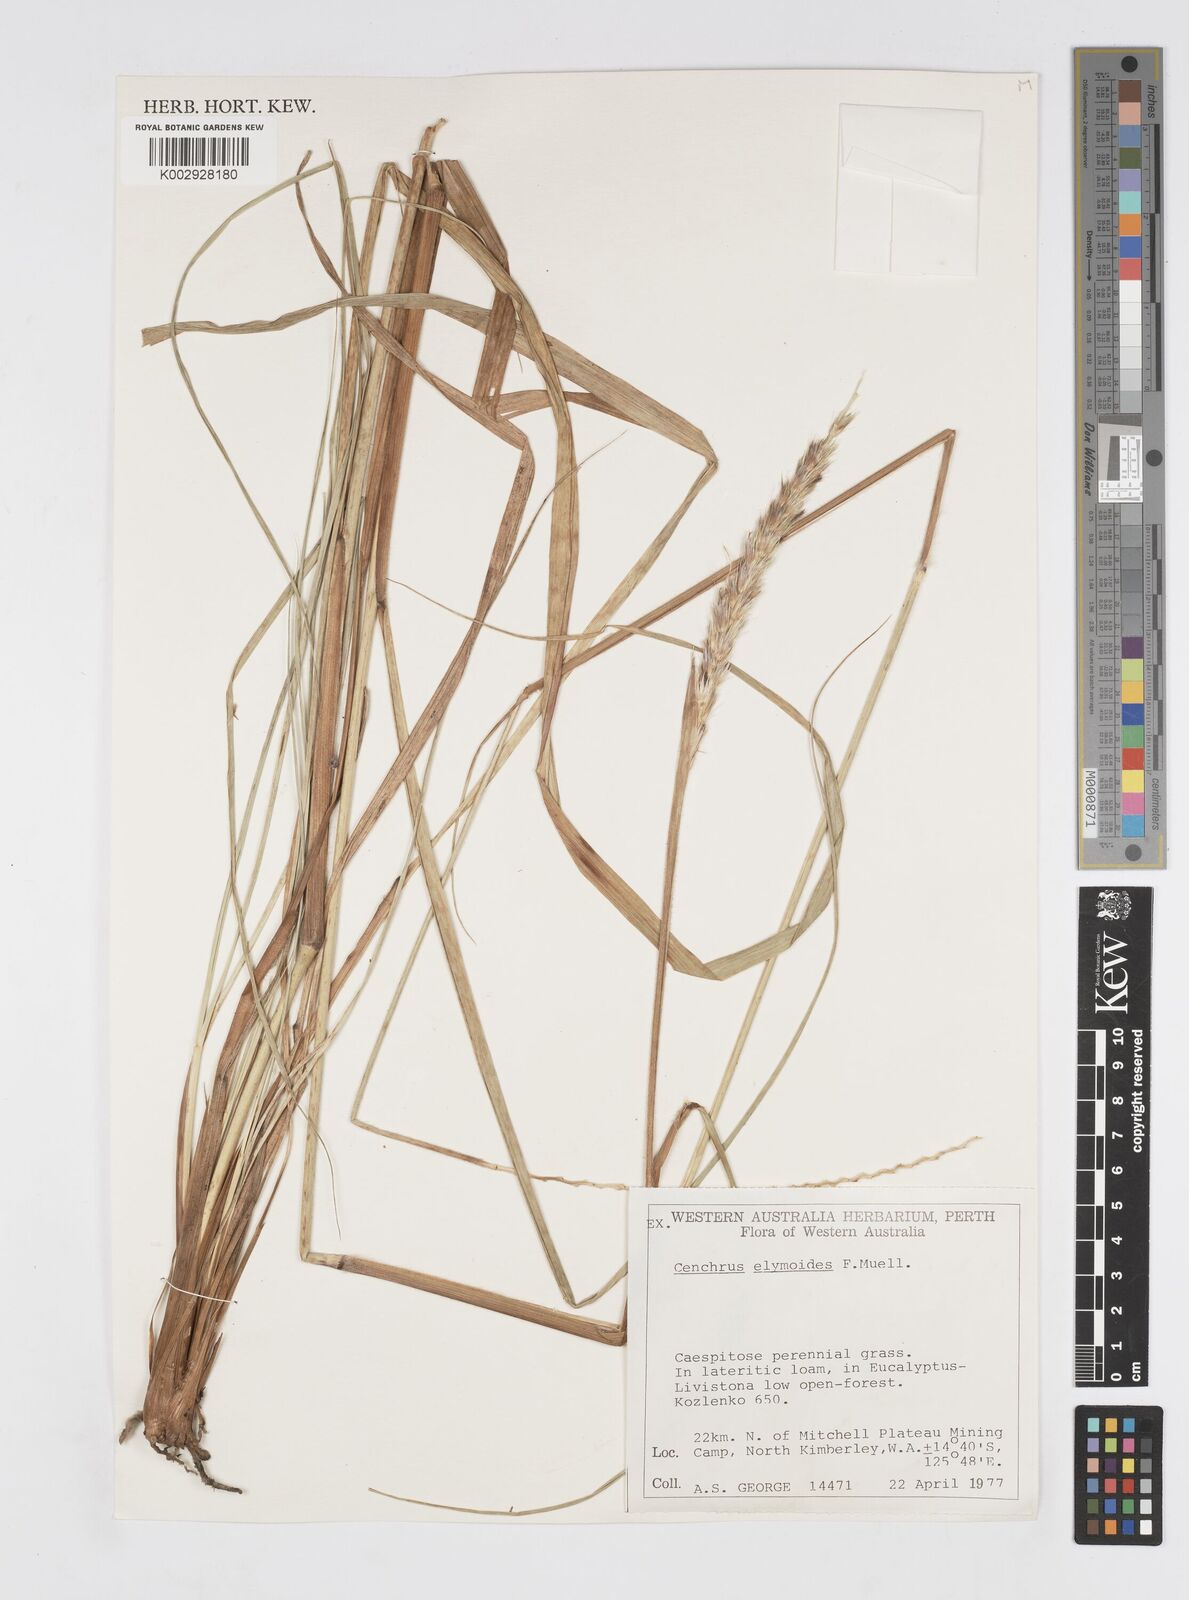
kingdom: Plantae
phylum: Tracheophyta
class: Liliopsida
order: Poales
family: Poaceae
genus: Cenchrus
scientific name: Cenchrus elymoides
